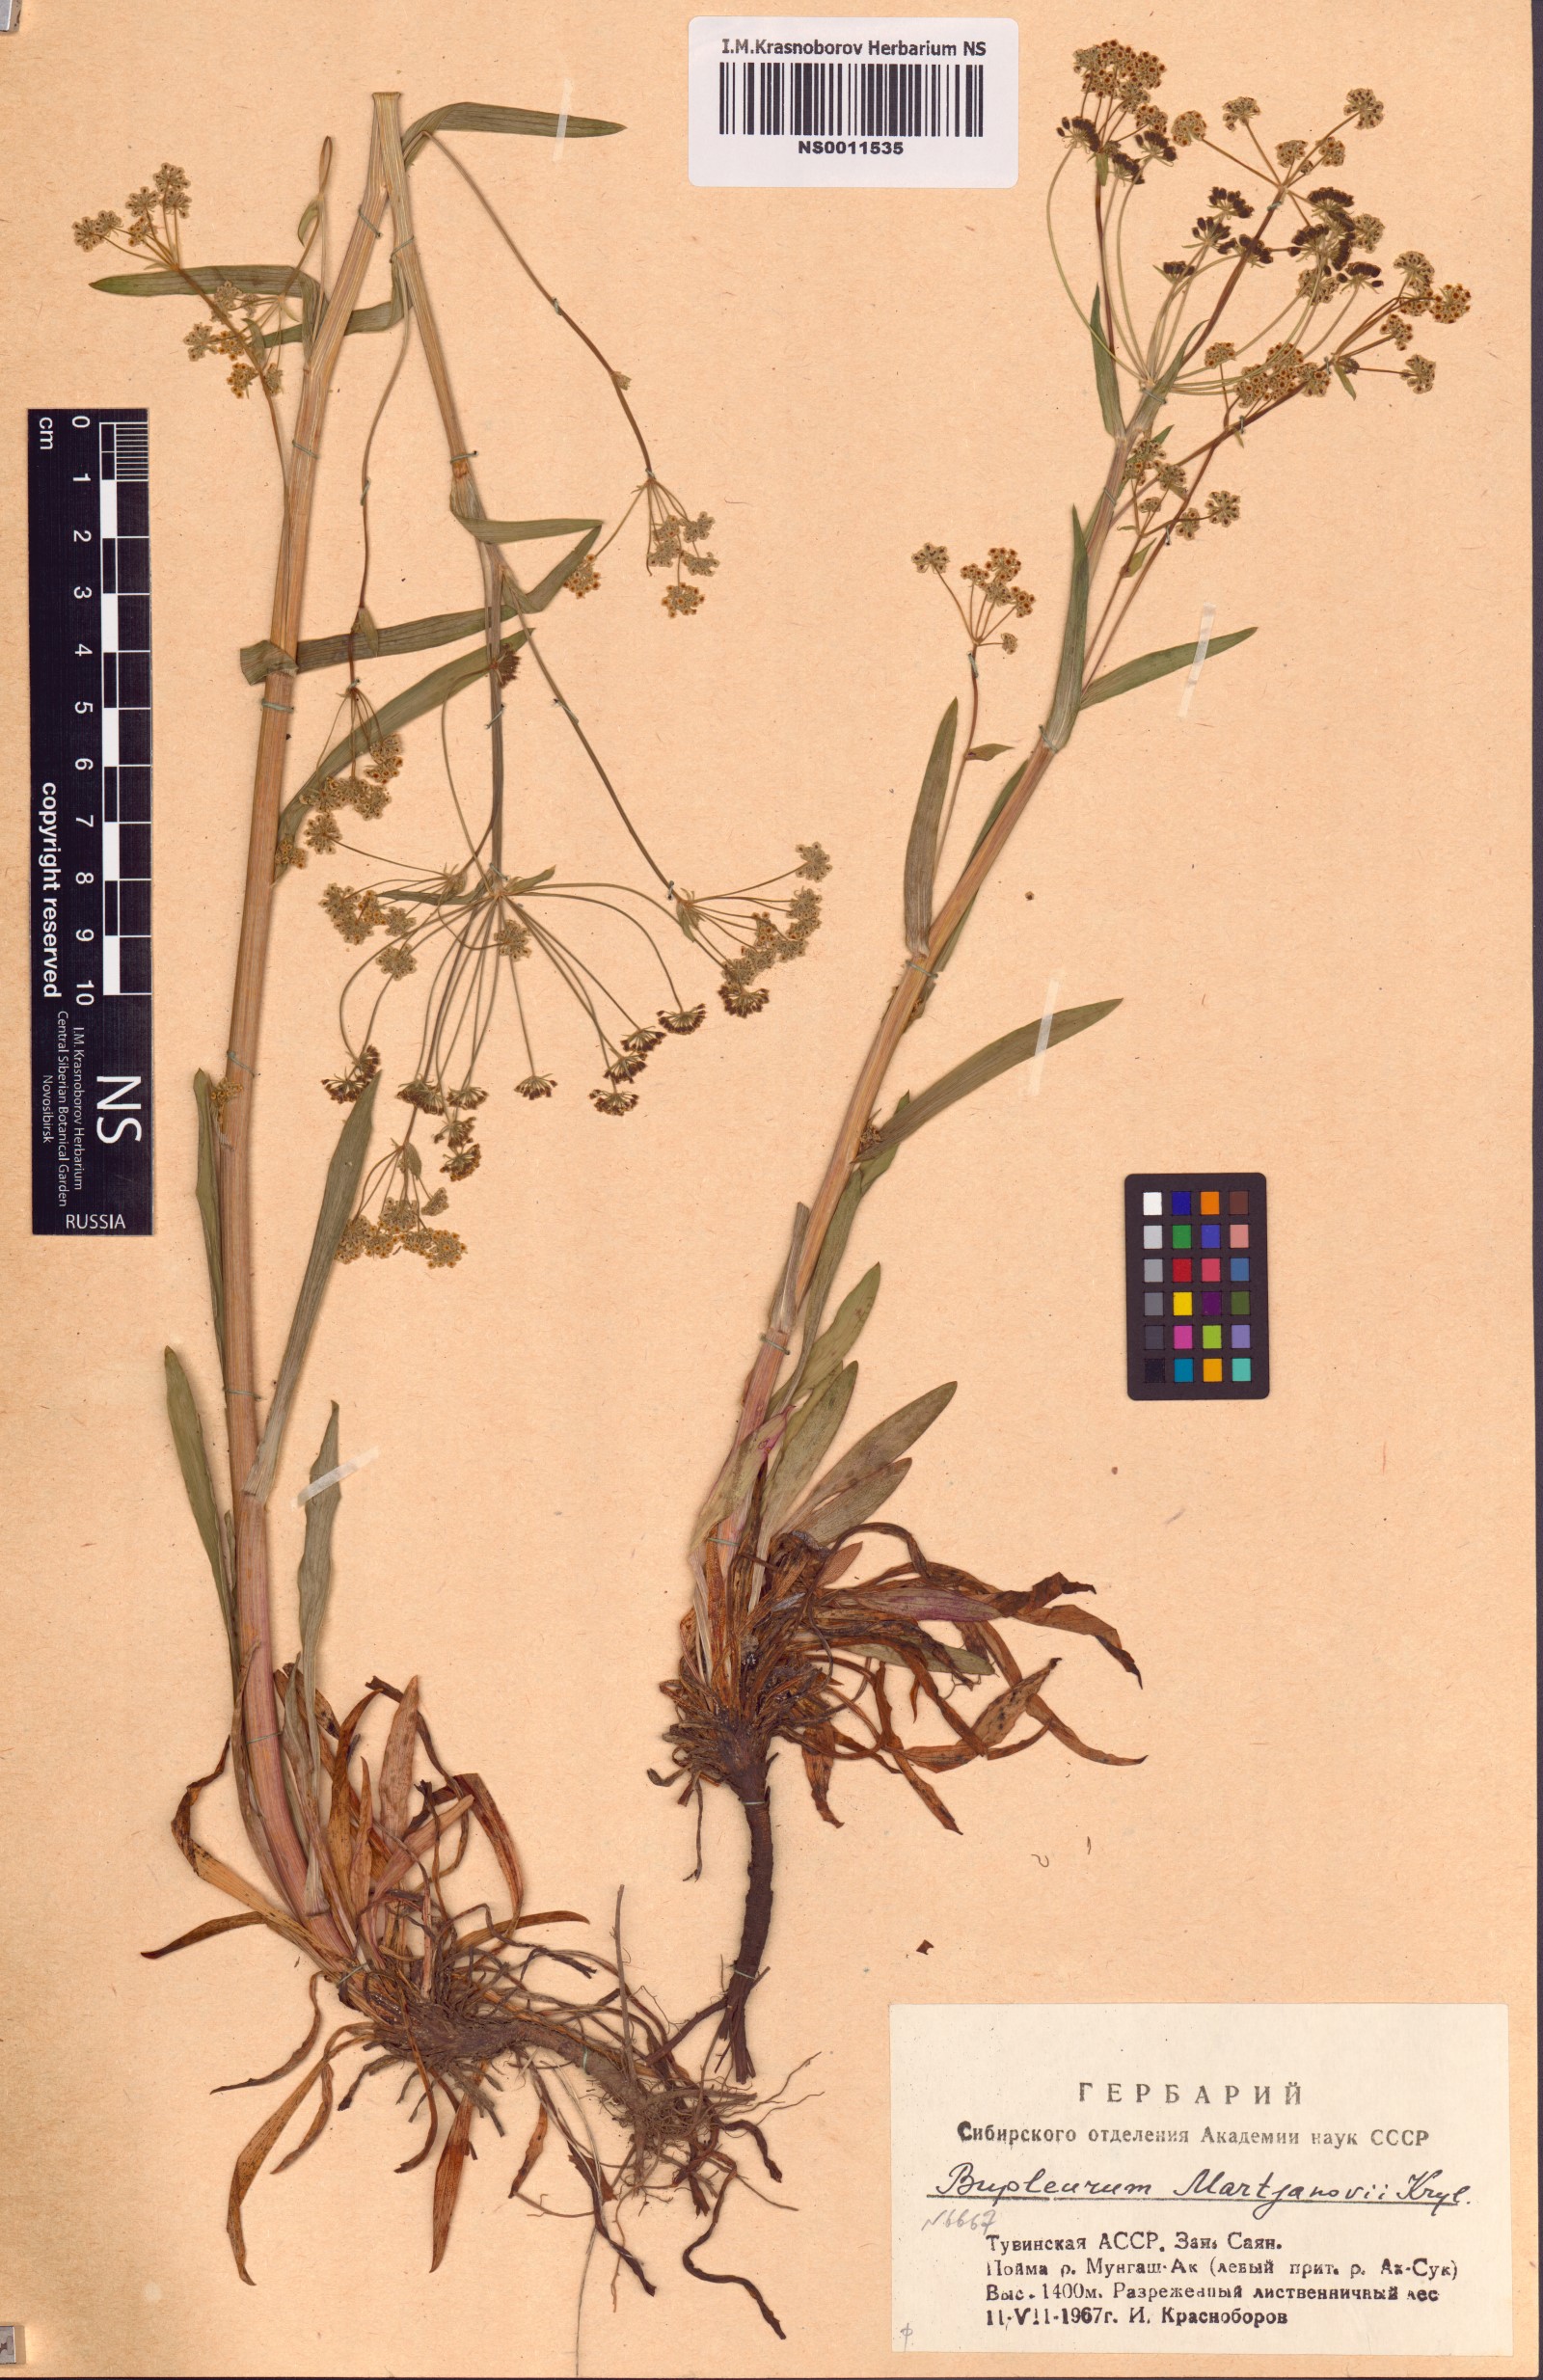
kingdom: Plantae
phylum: Tracheophyta
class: Magnoliopsida
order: Apiales
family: Apiaceae
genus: Bupleurum
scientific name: Bupleurum martjanovii
